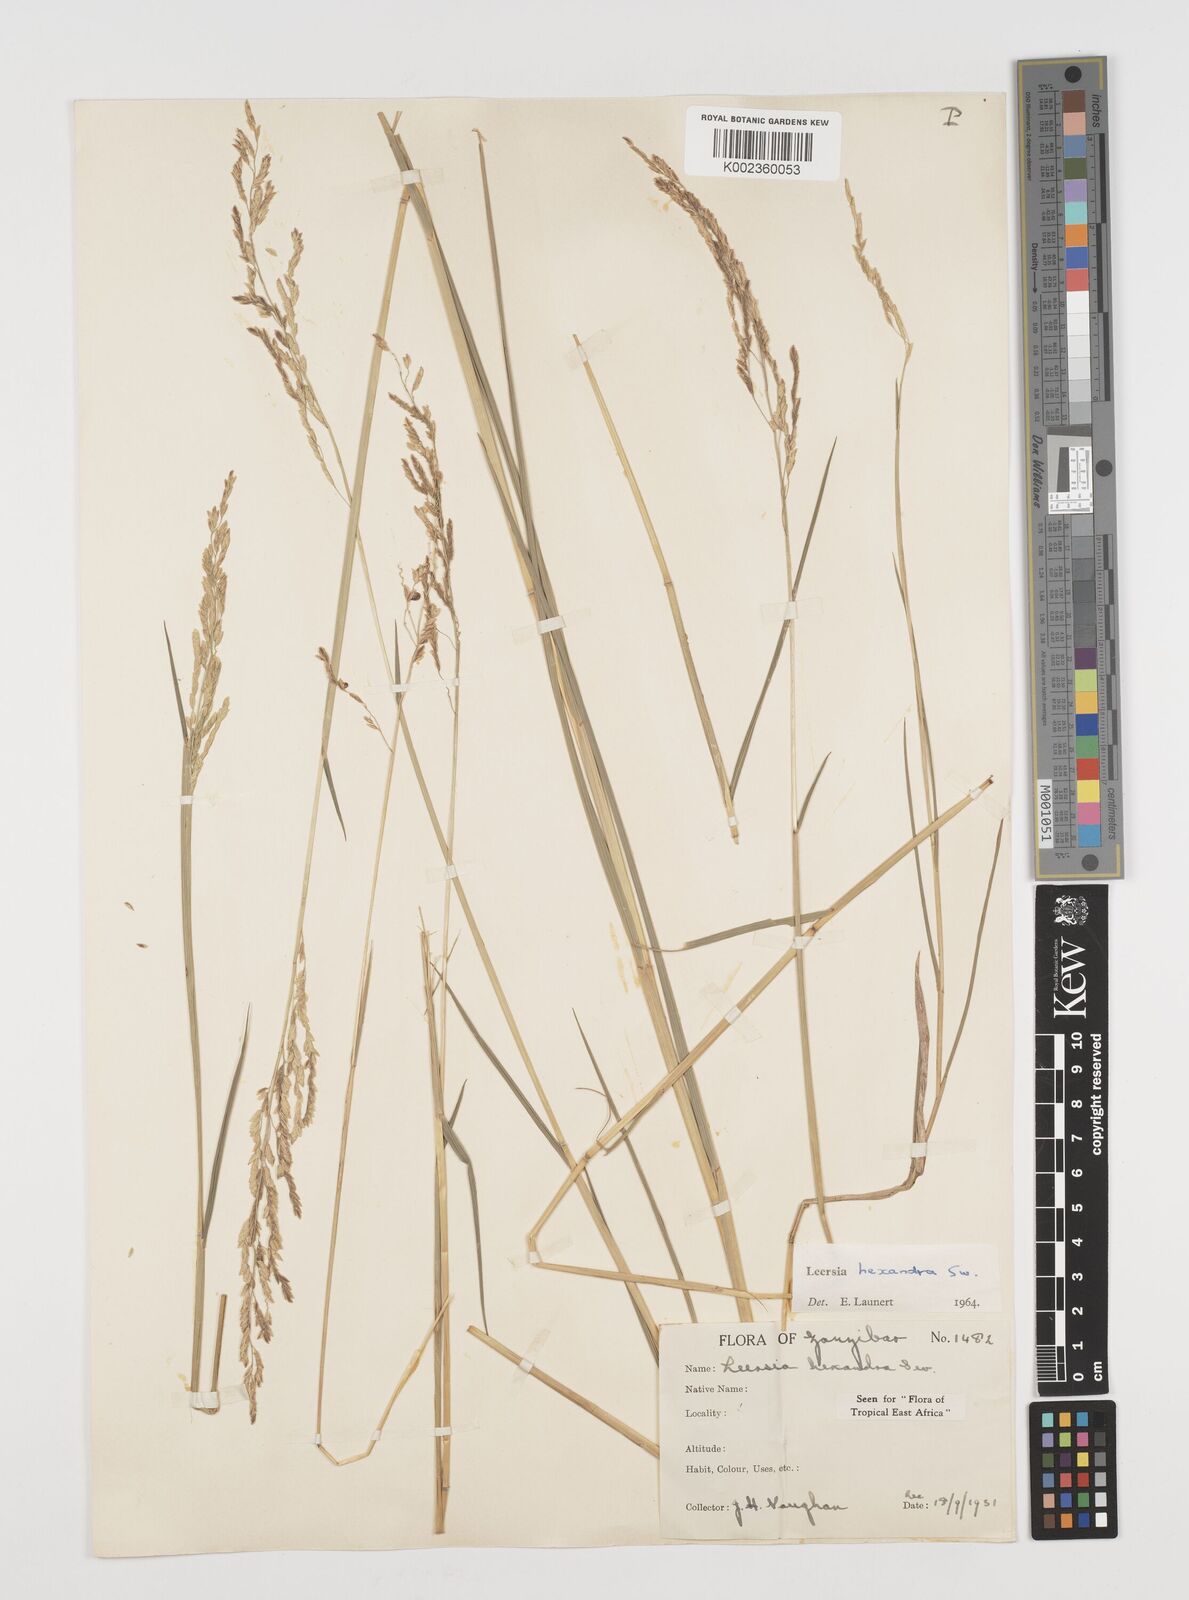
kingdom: Plantae
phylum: Tracheophyta
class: Liliopsida
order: Poales
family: Poaceae
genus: Leersia
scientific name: Leersia hexandra
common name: Southern cut grass
